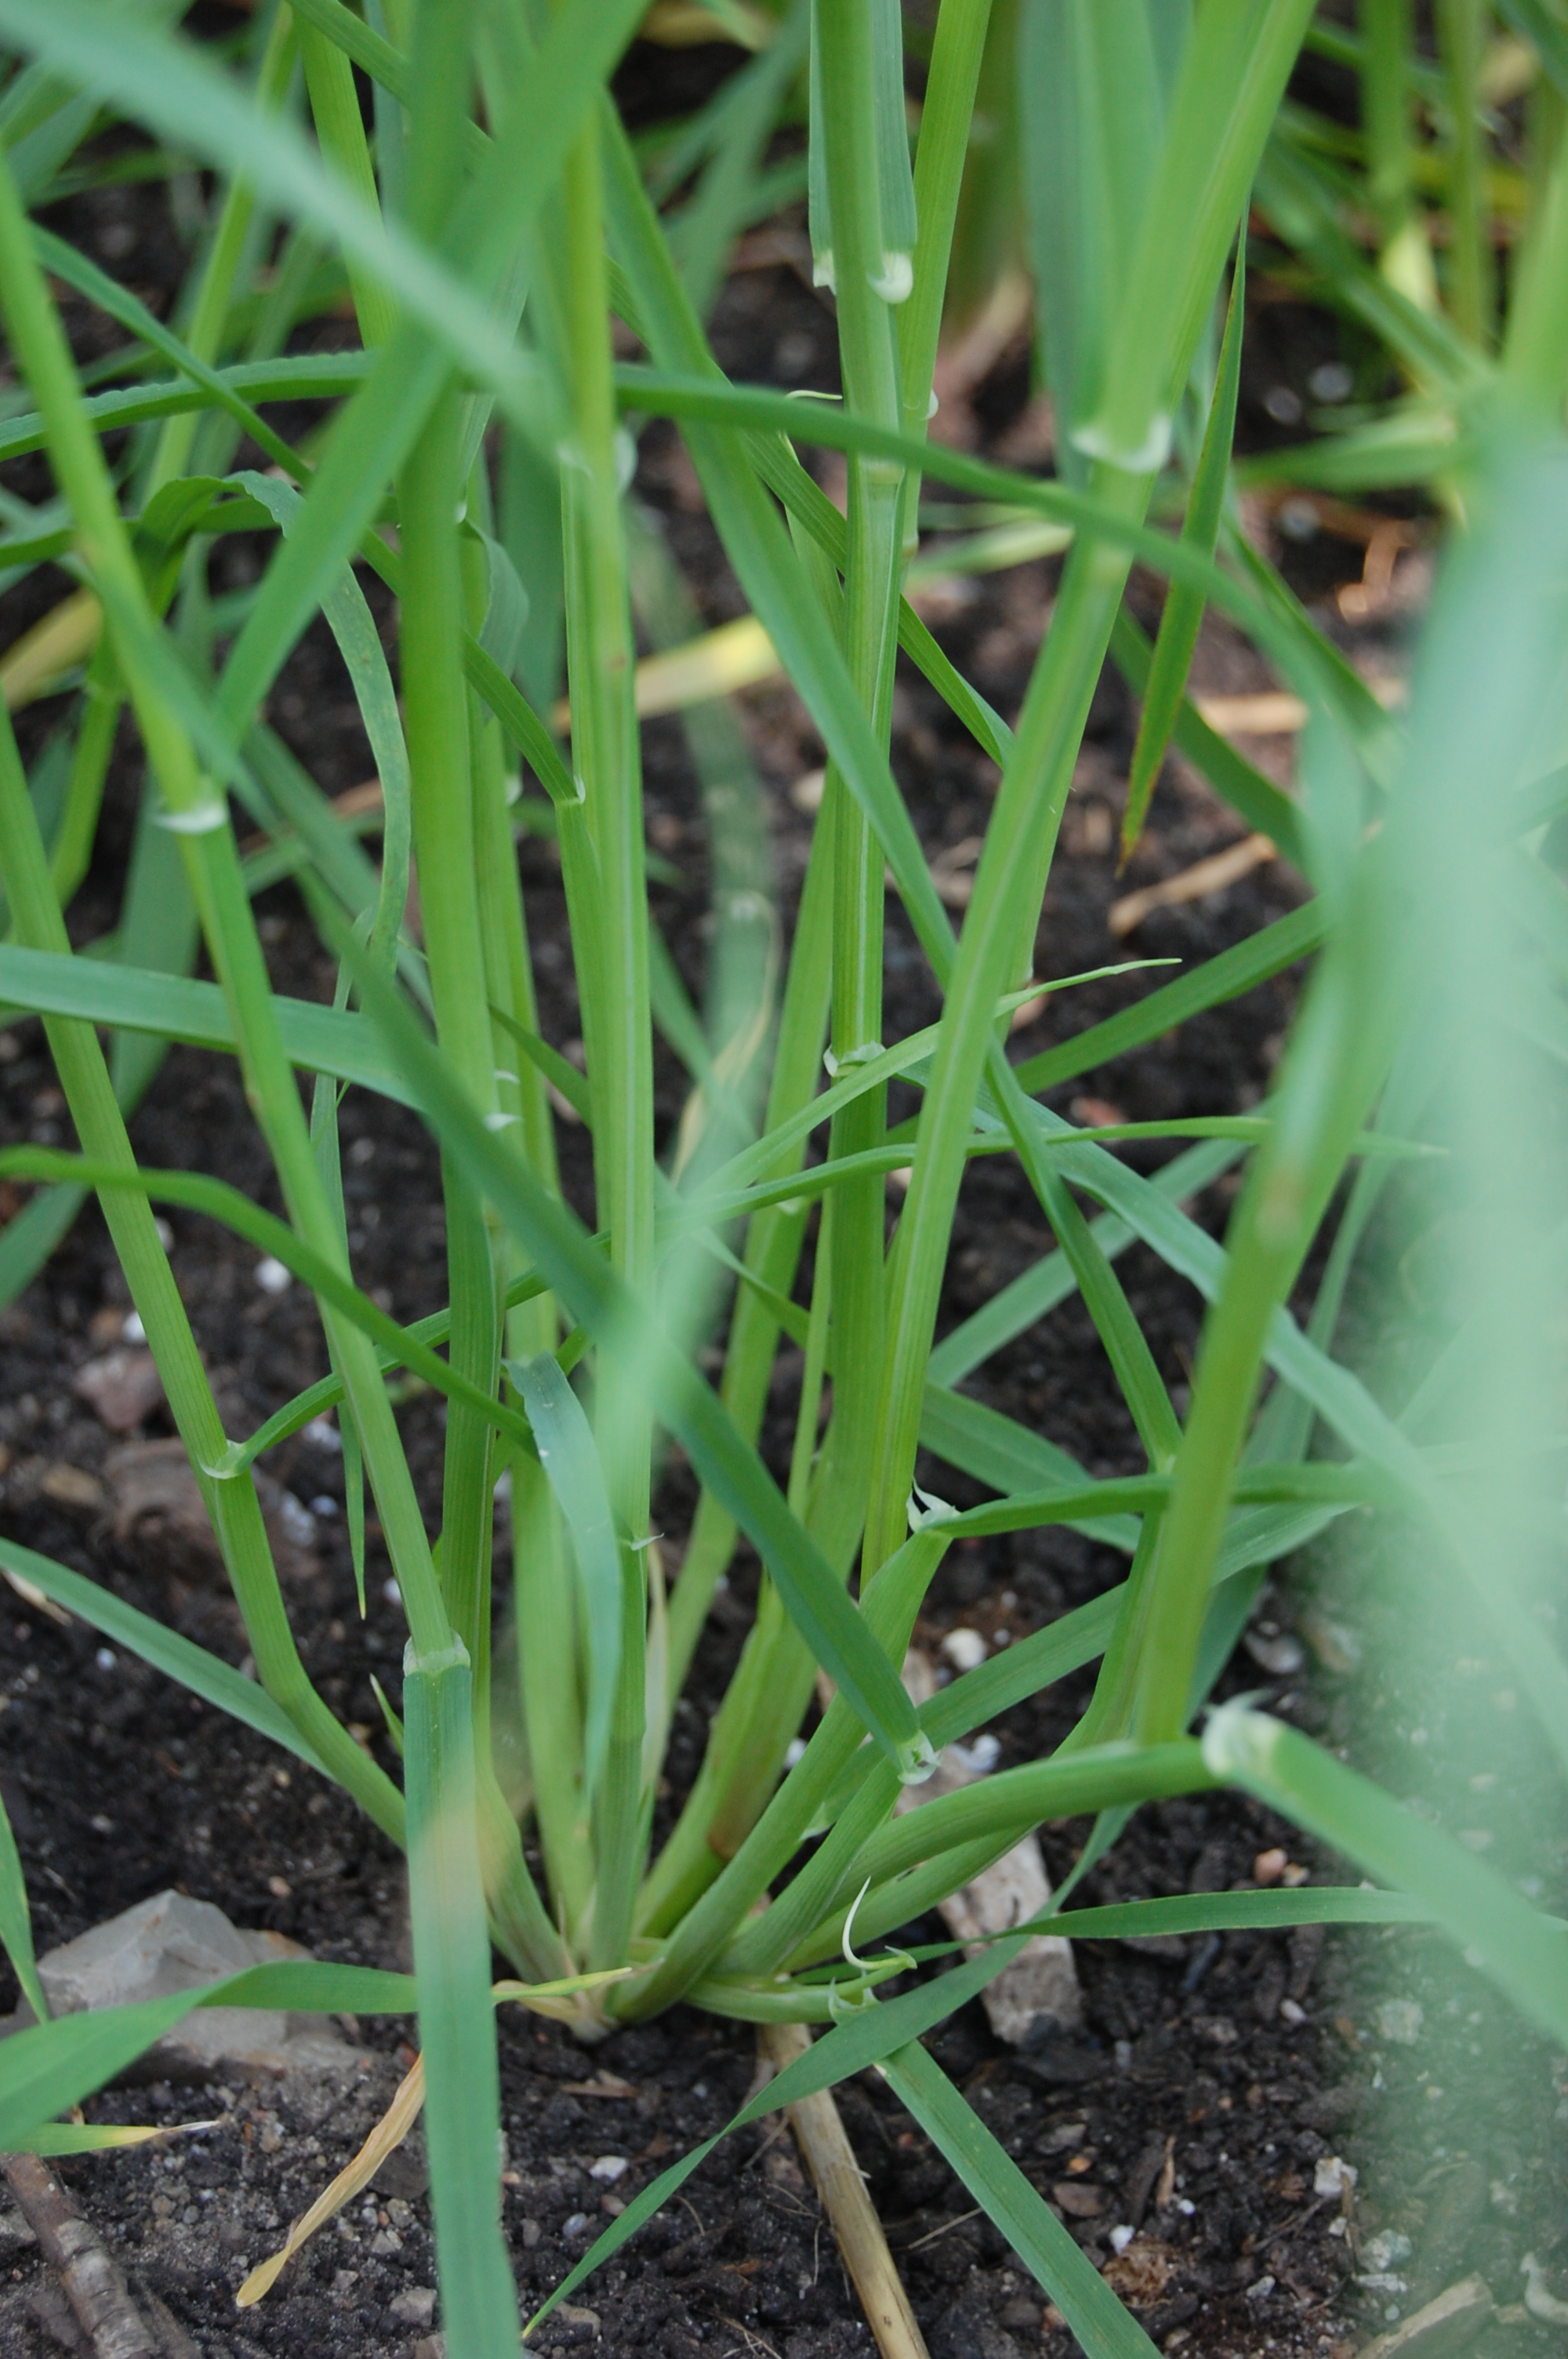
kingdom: Plantae
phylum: Tracheophyta
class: Liliopsida
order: Poales
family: Poaceae
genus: Hordeum
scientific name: Hordeum vulgare
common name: Common barley
